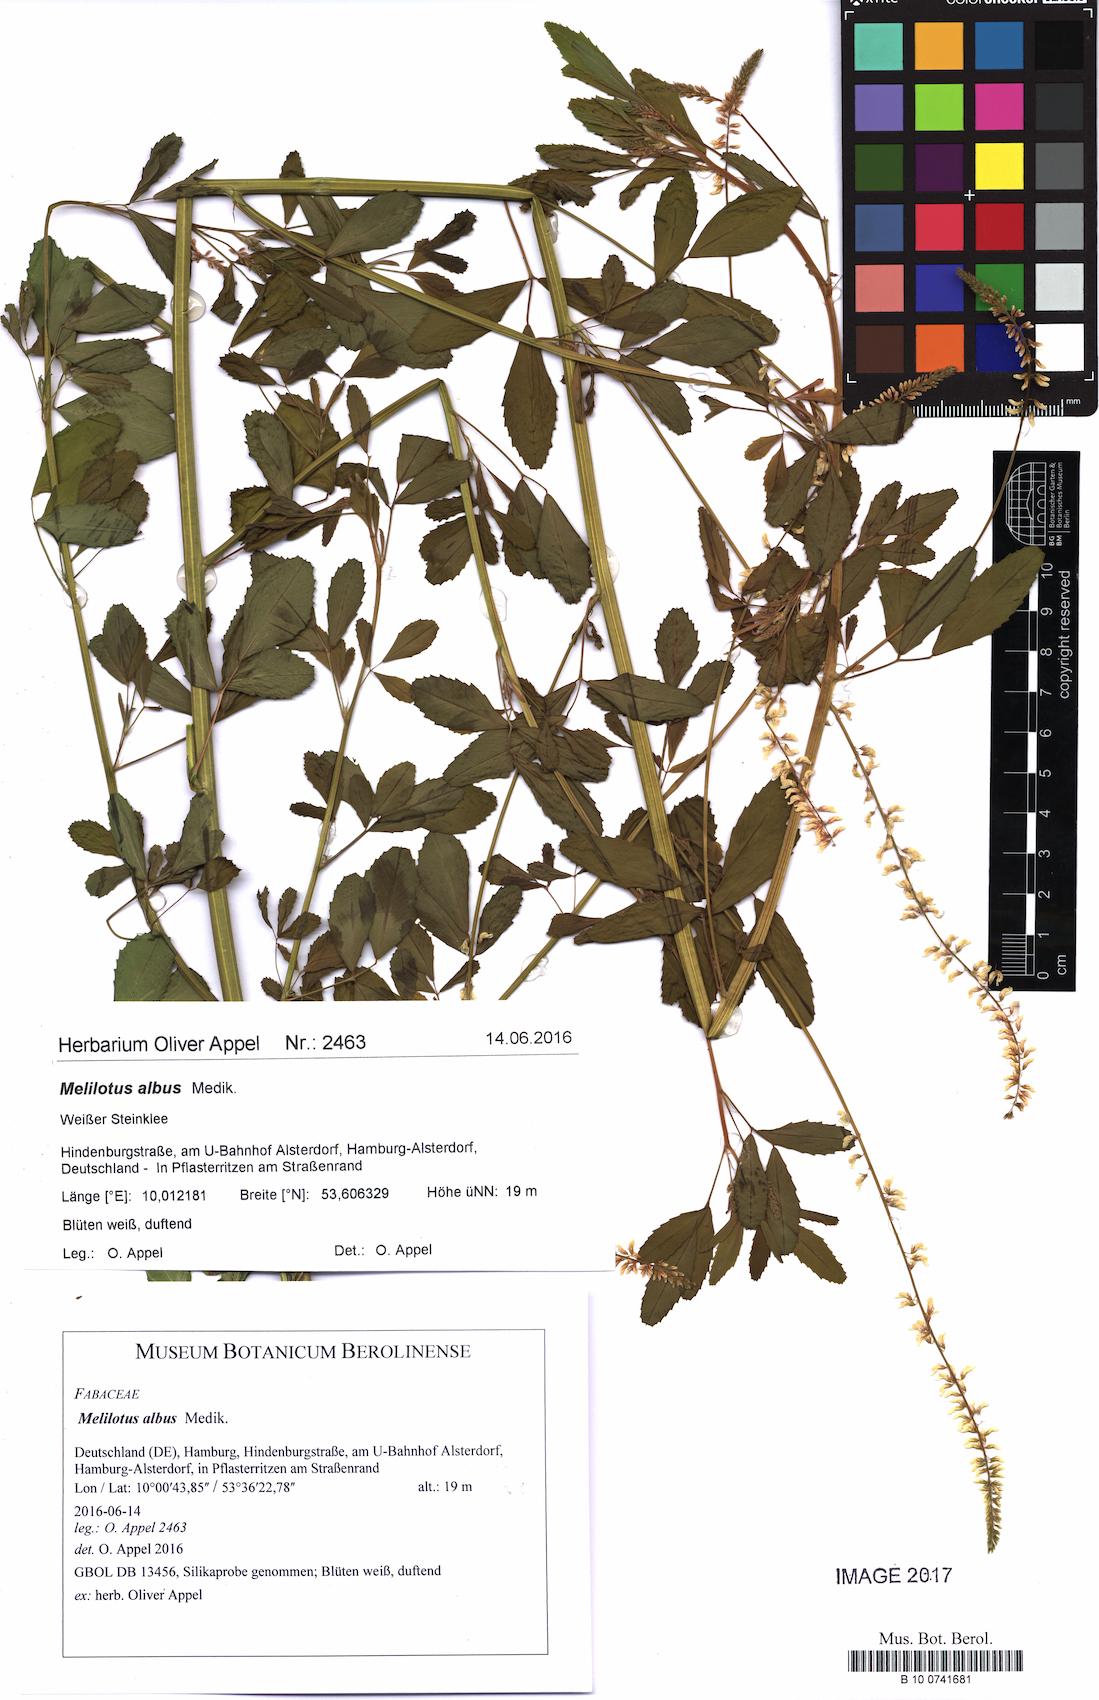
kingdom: Plantae
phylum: Tracheophyta
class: Magnoliopsida
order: Fabales
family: Fabaceae
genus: Melilotus
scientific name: Melilotus albus
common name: White melilot
